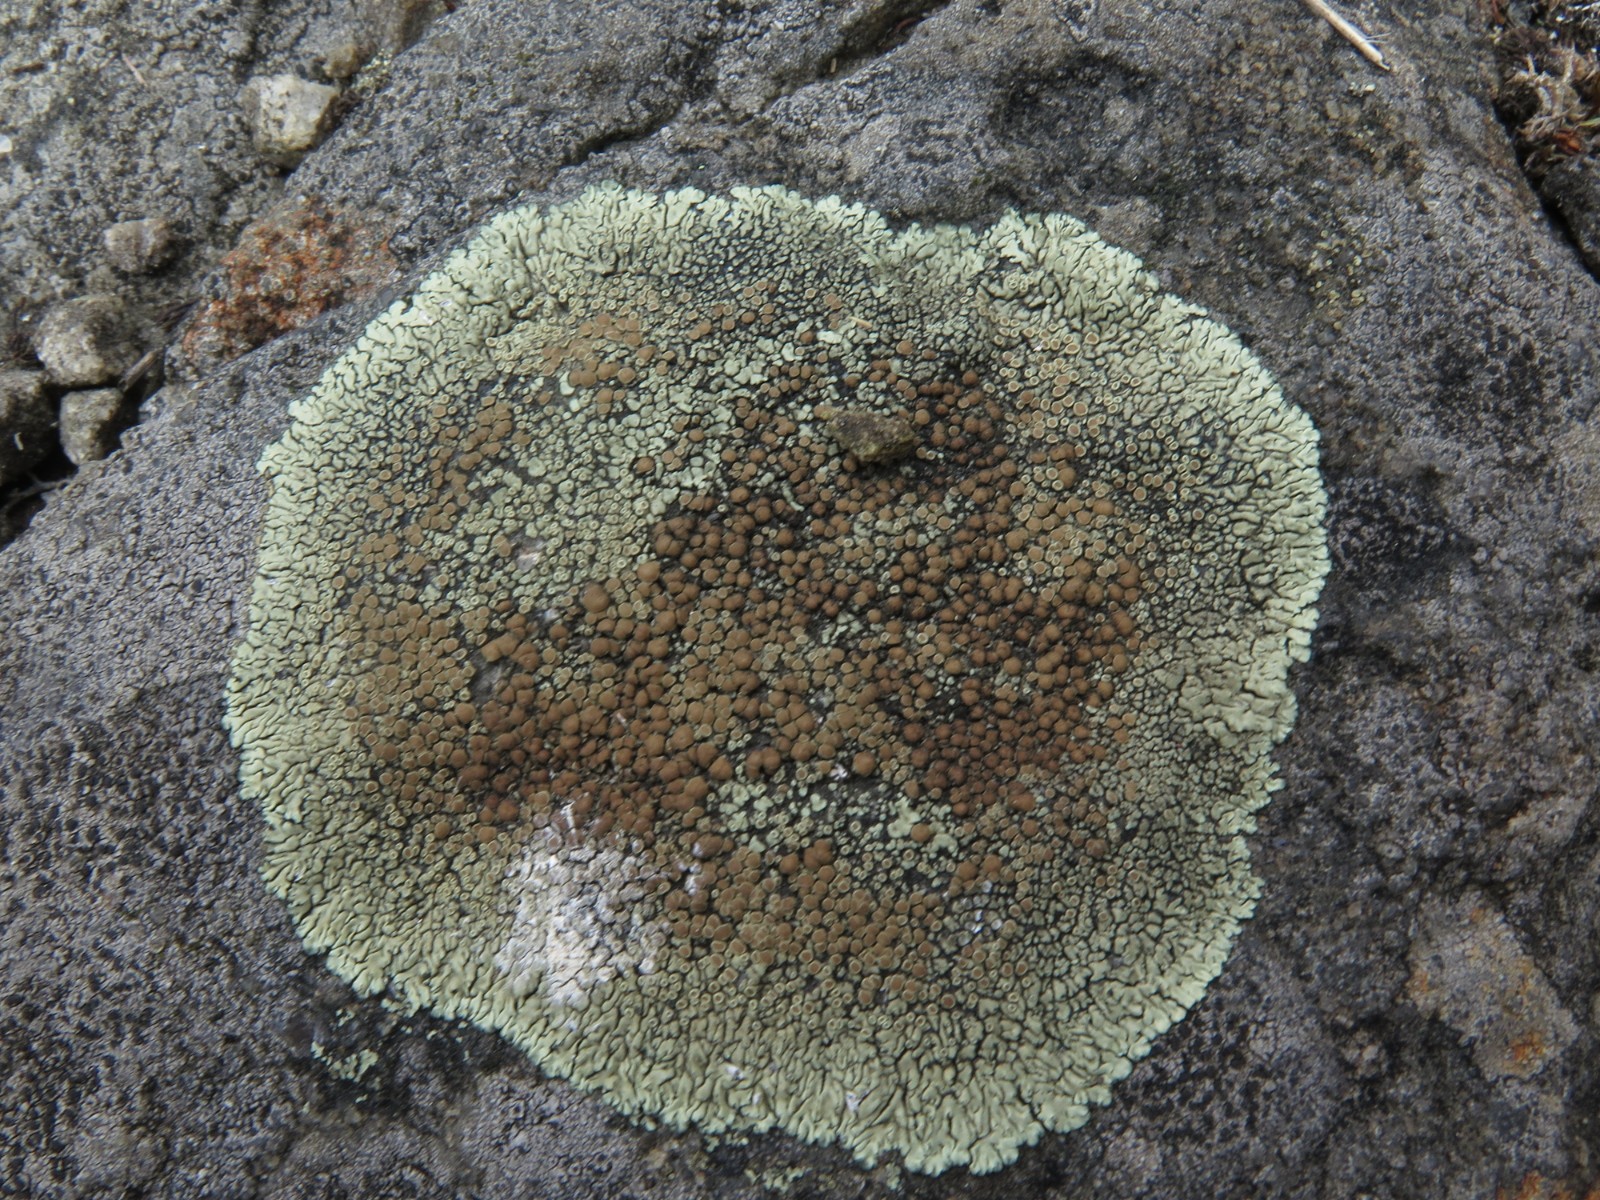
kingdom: Fungi
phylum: Ascomycota
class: Lecanoromycetes
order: Lecanorales
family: Lecanoraceae
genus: Protoparmeliopsis
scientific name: Protoparmeliopsis muralis
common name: randfliget kantskivelav
